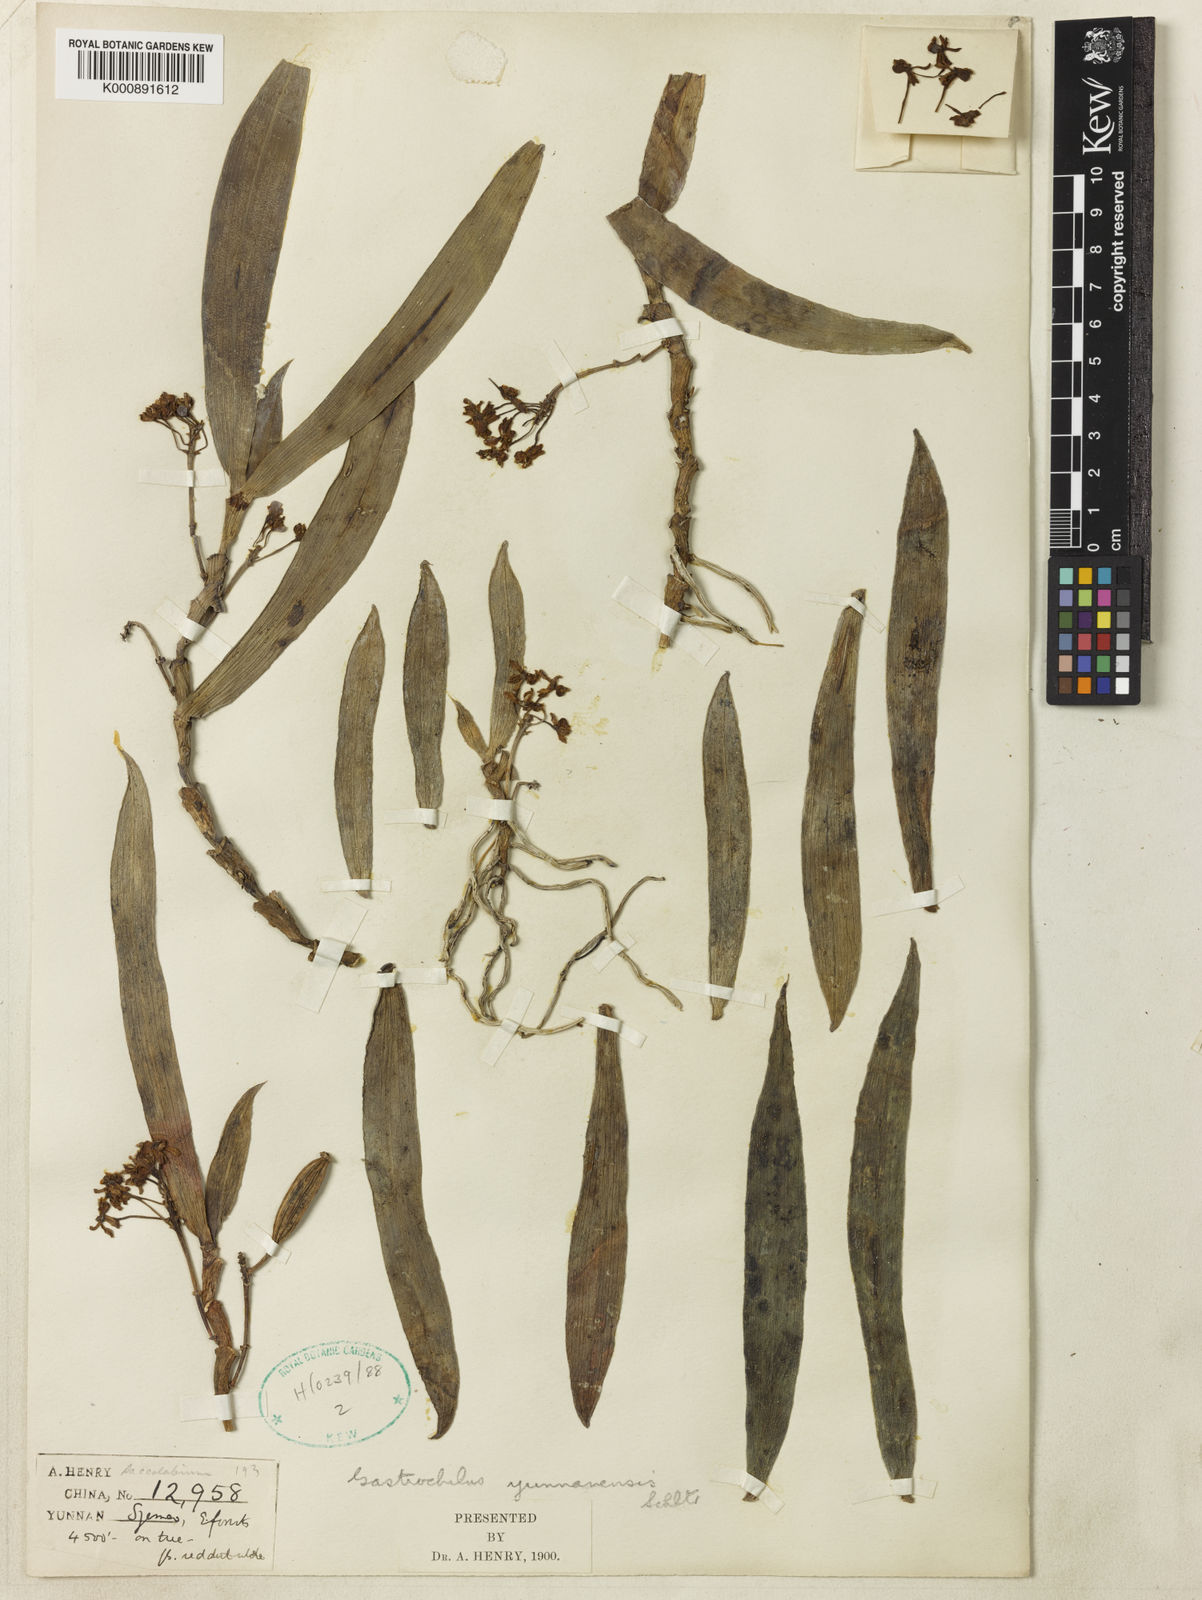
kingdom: Plantae
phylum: Tracheophyta
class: Liliopsida
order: Asparagales
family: Orchidaceae
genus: Gastrochilus
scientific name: Gastrochilus
